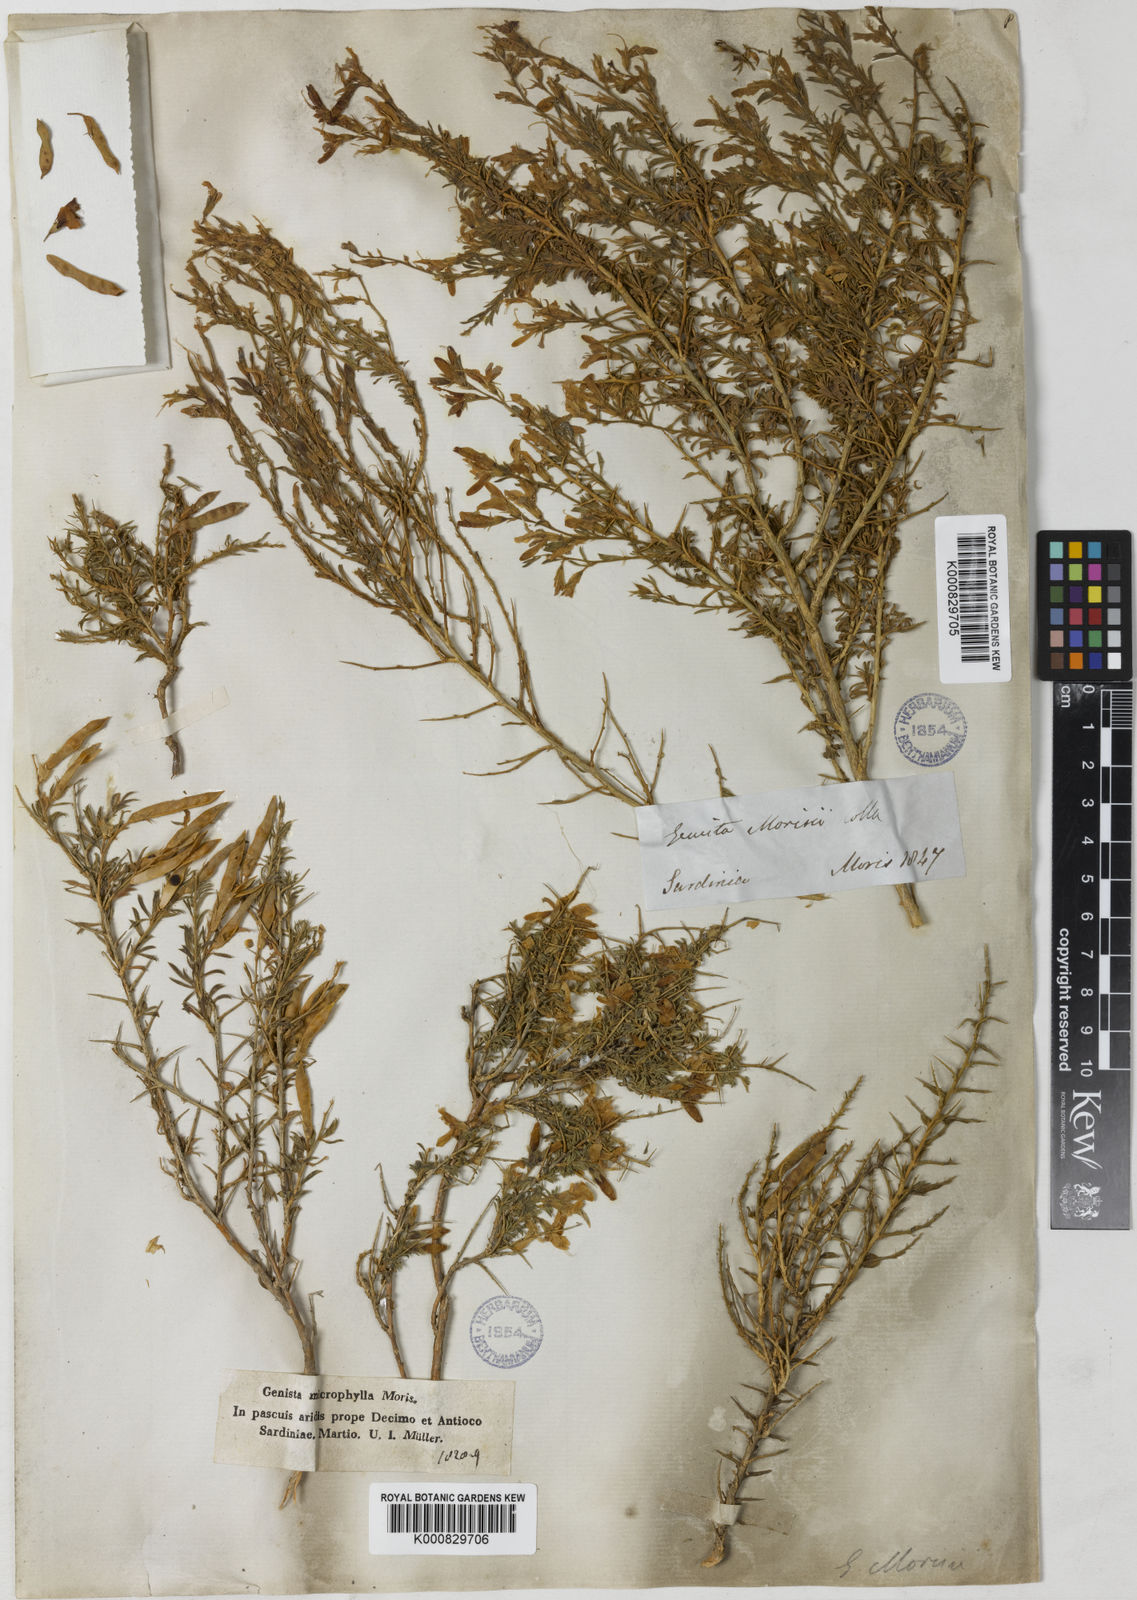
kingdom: Plantae
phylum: Tracheophyta
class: Magnoliopsida
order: Fabales
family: Fabaceae
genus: Genista
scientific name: Genista morisii
